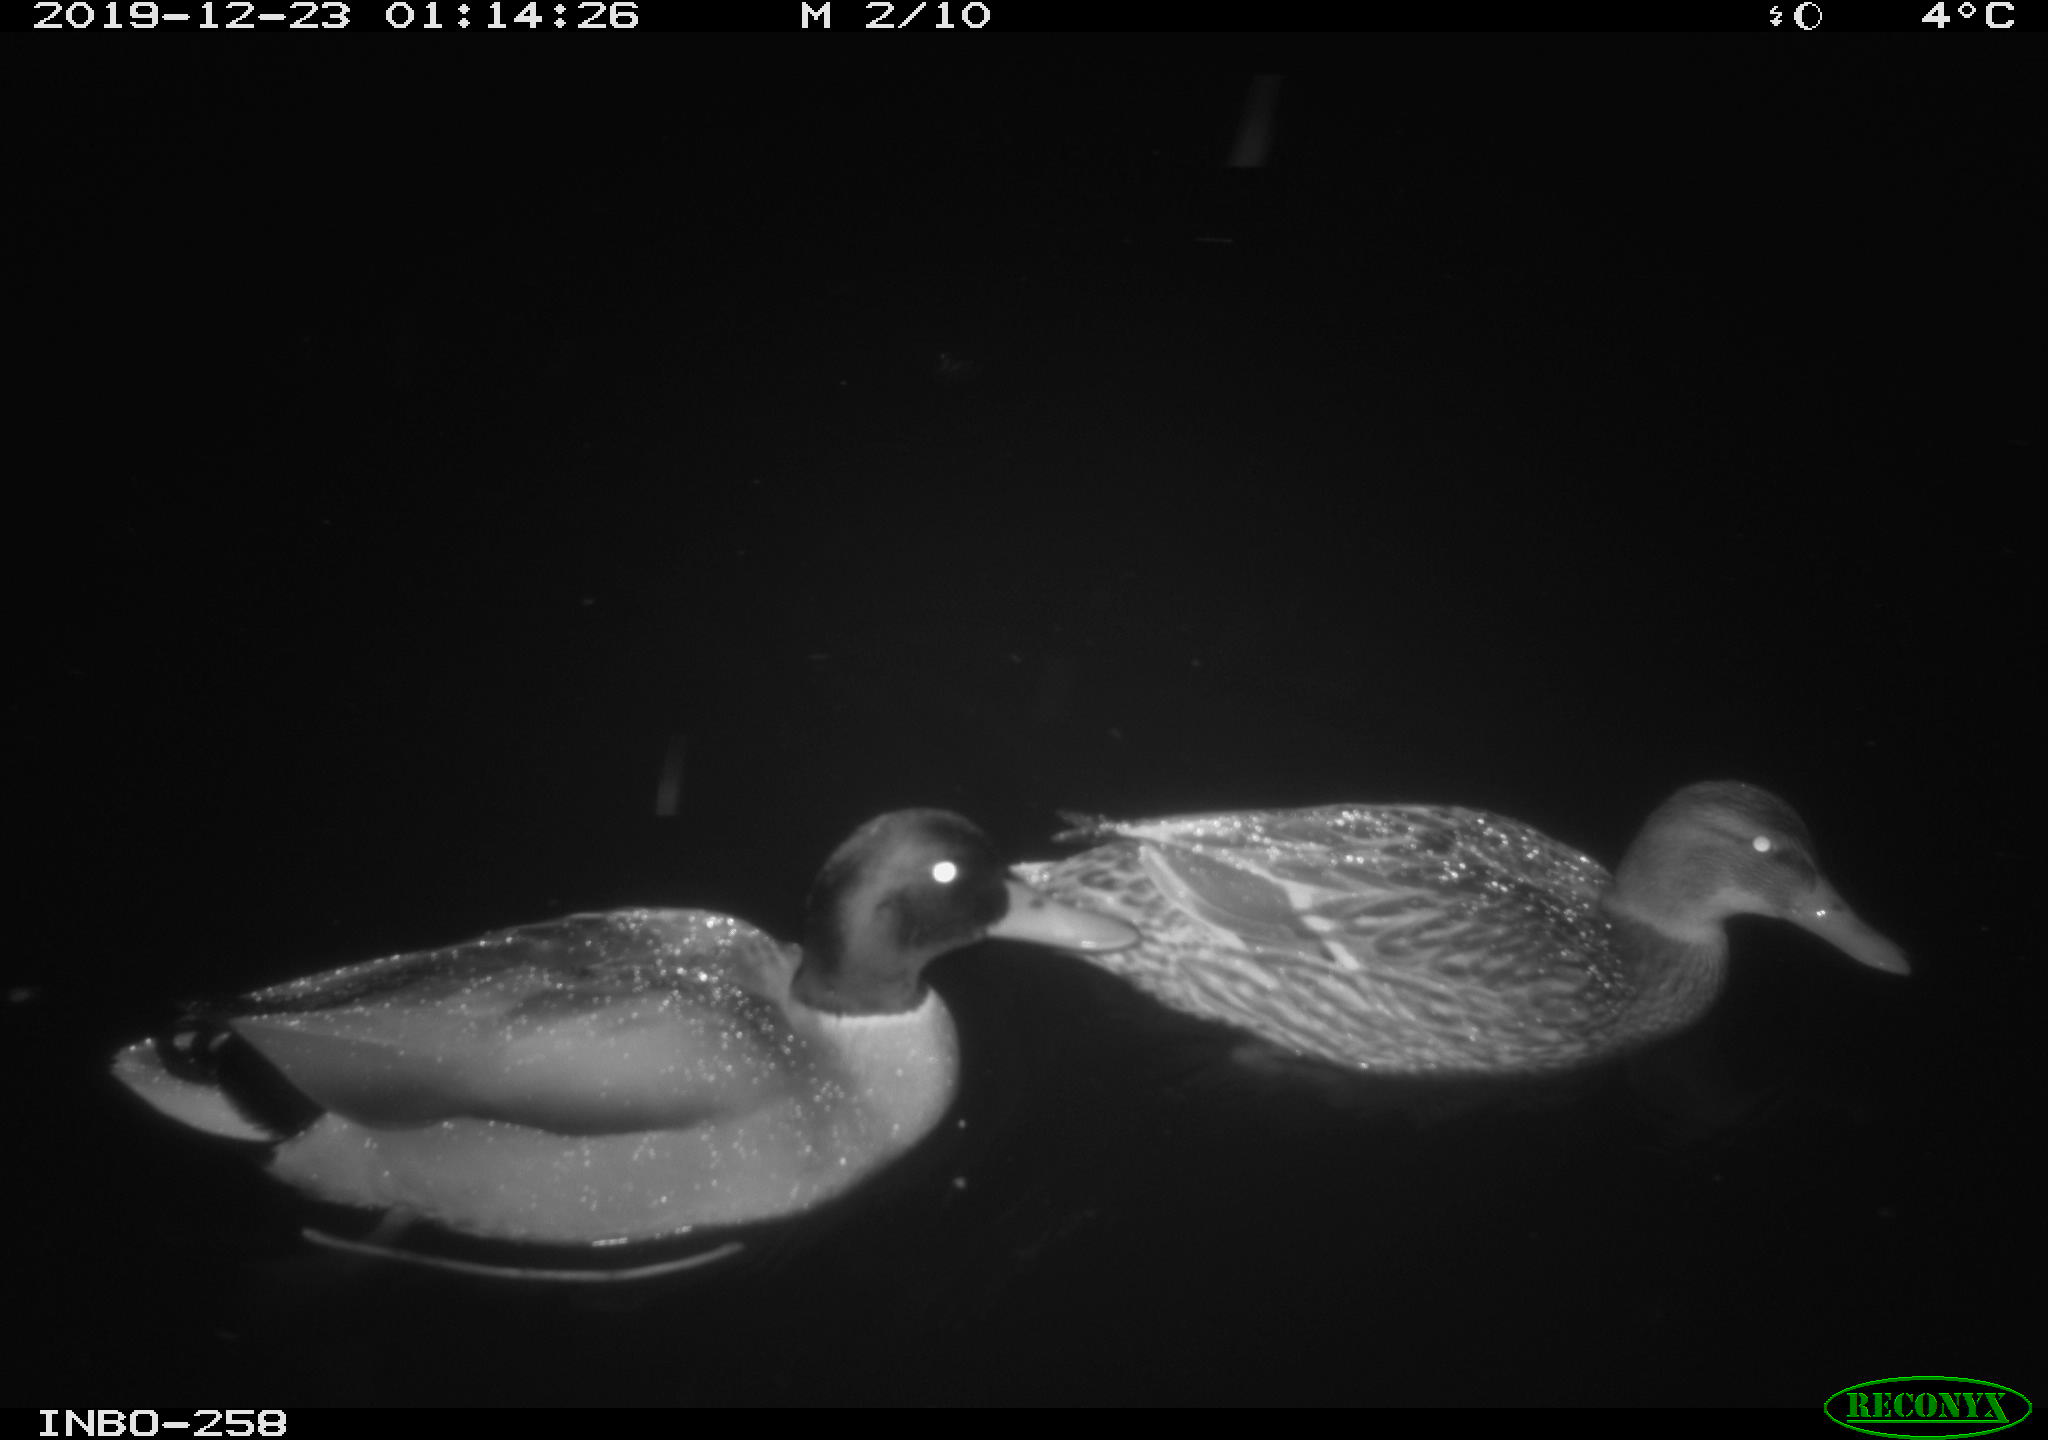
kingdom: Animalia
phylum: Chordata
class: Aves
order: Anseriformes
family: Anatidae
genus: Anas
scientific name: Anas platyrhynchos
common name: Mallard
